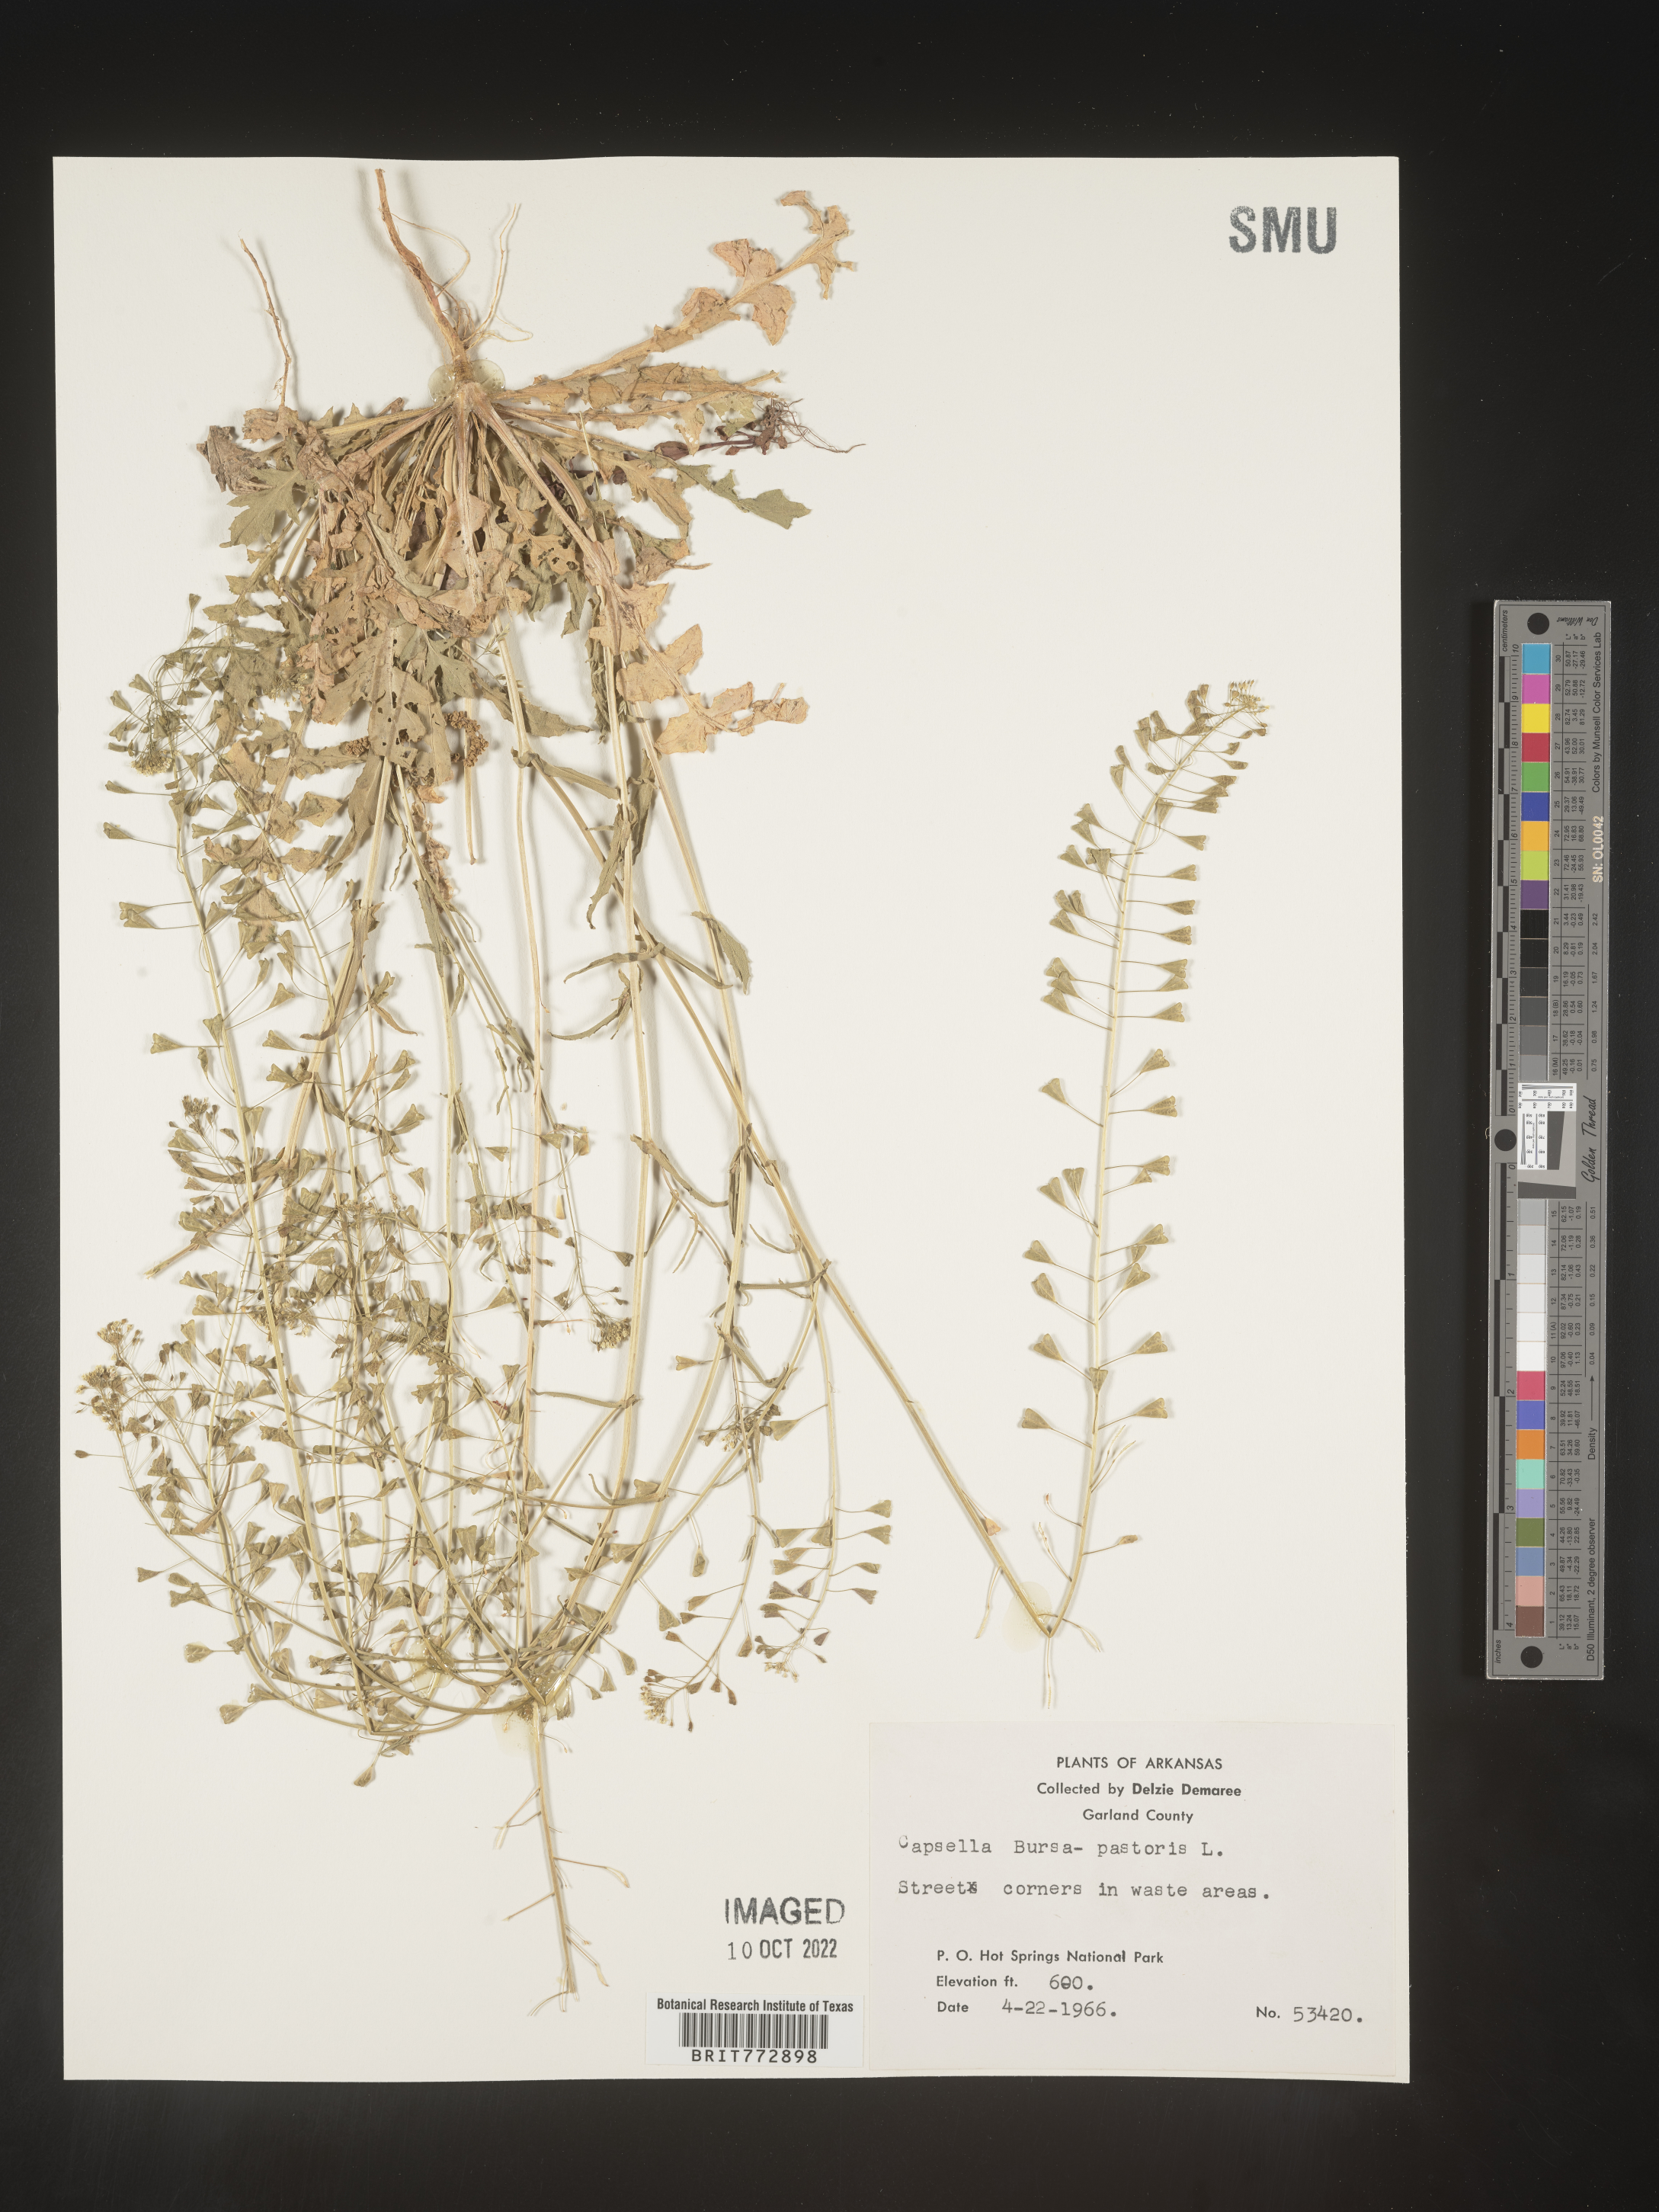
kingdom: Plantae
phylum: Tracheophyta
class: Magnoliopsida
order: Brassicales
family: Brassicaceae
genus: Capsella
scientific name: Capsella bursa-pastoris
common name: Shepherd's purse
